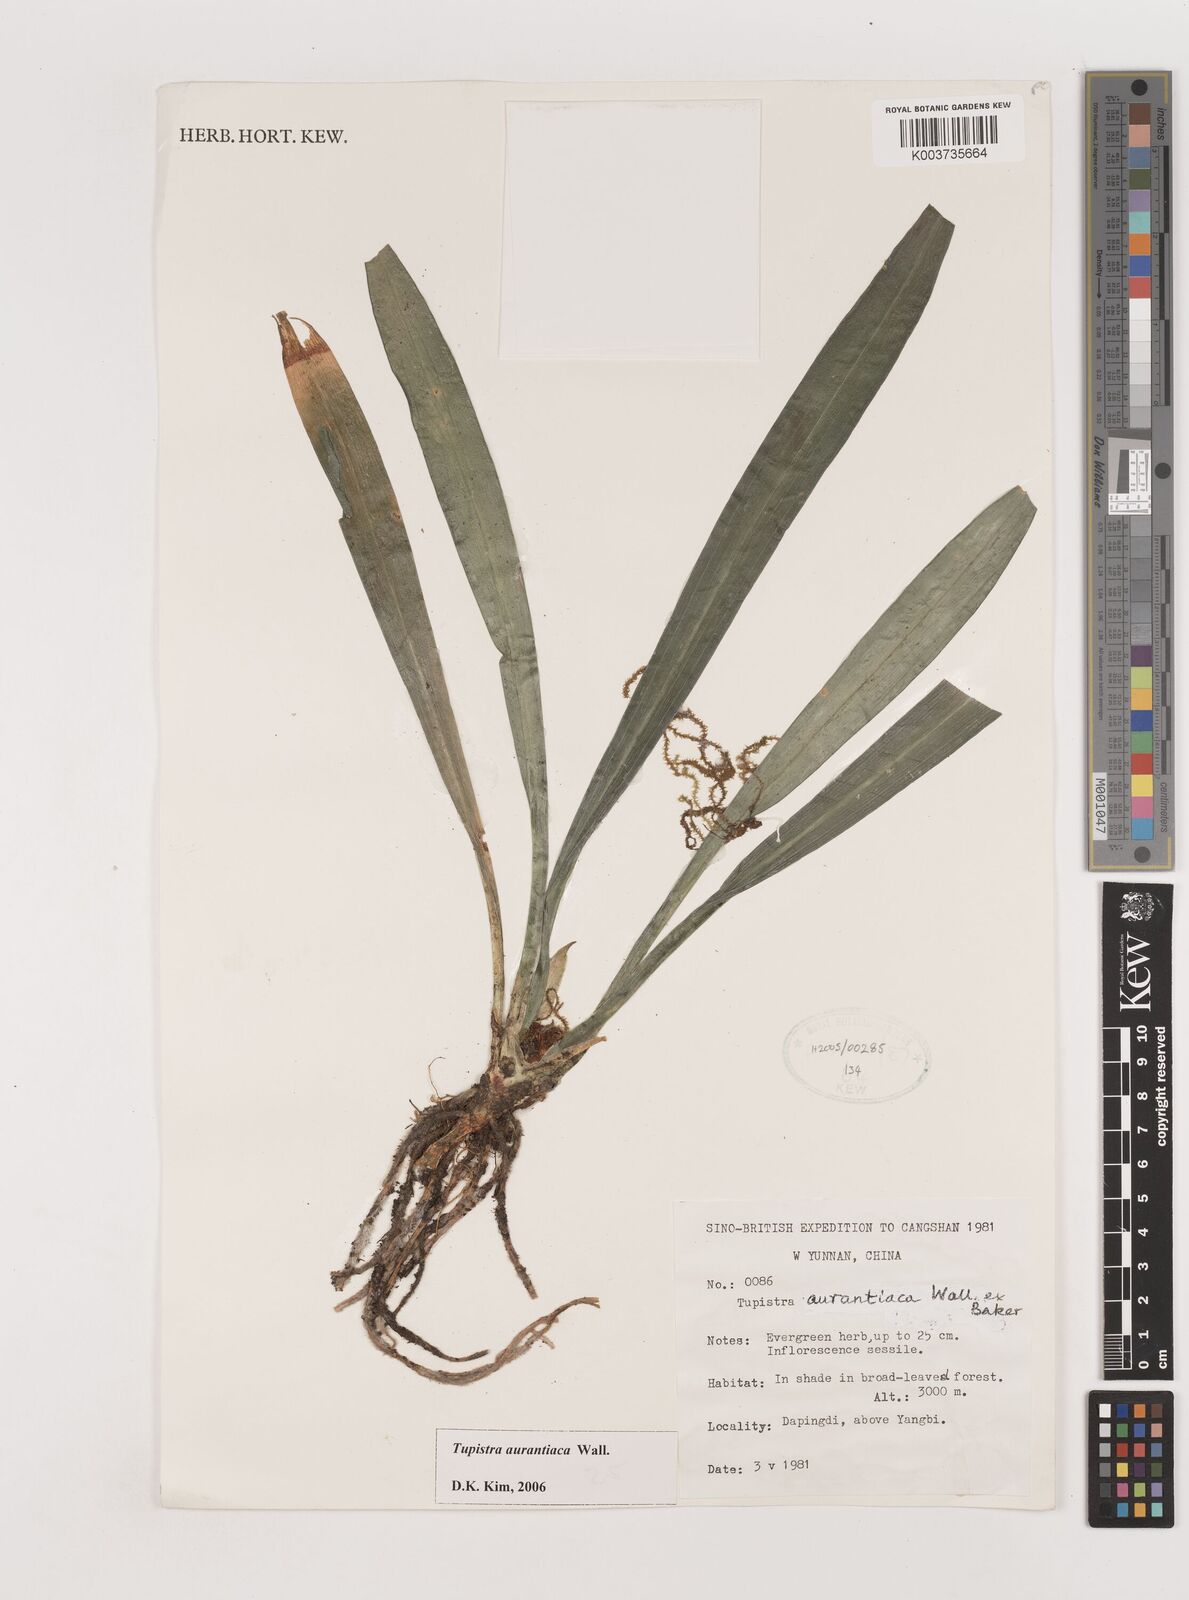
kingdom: Plantae
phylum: Tracheophyta
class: Liliopsida
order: Asparagales
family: Asparagaceae
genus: Rohdea
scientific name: Rohdea nepalensis
